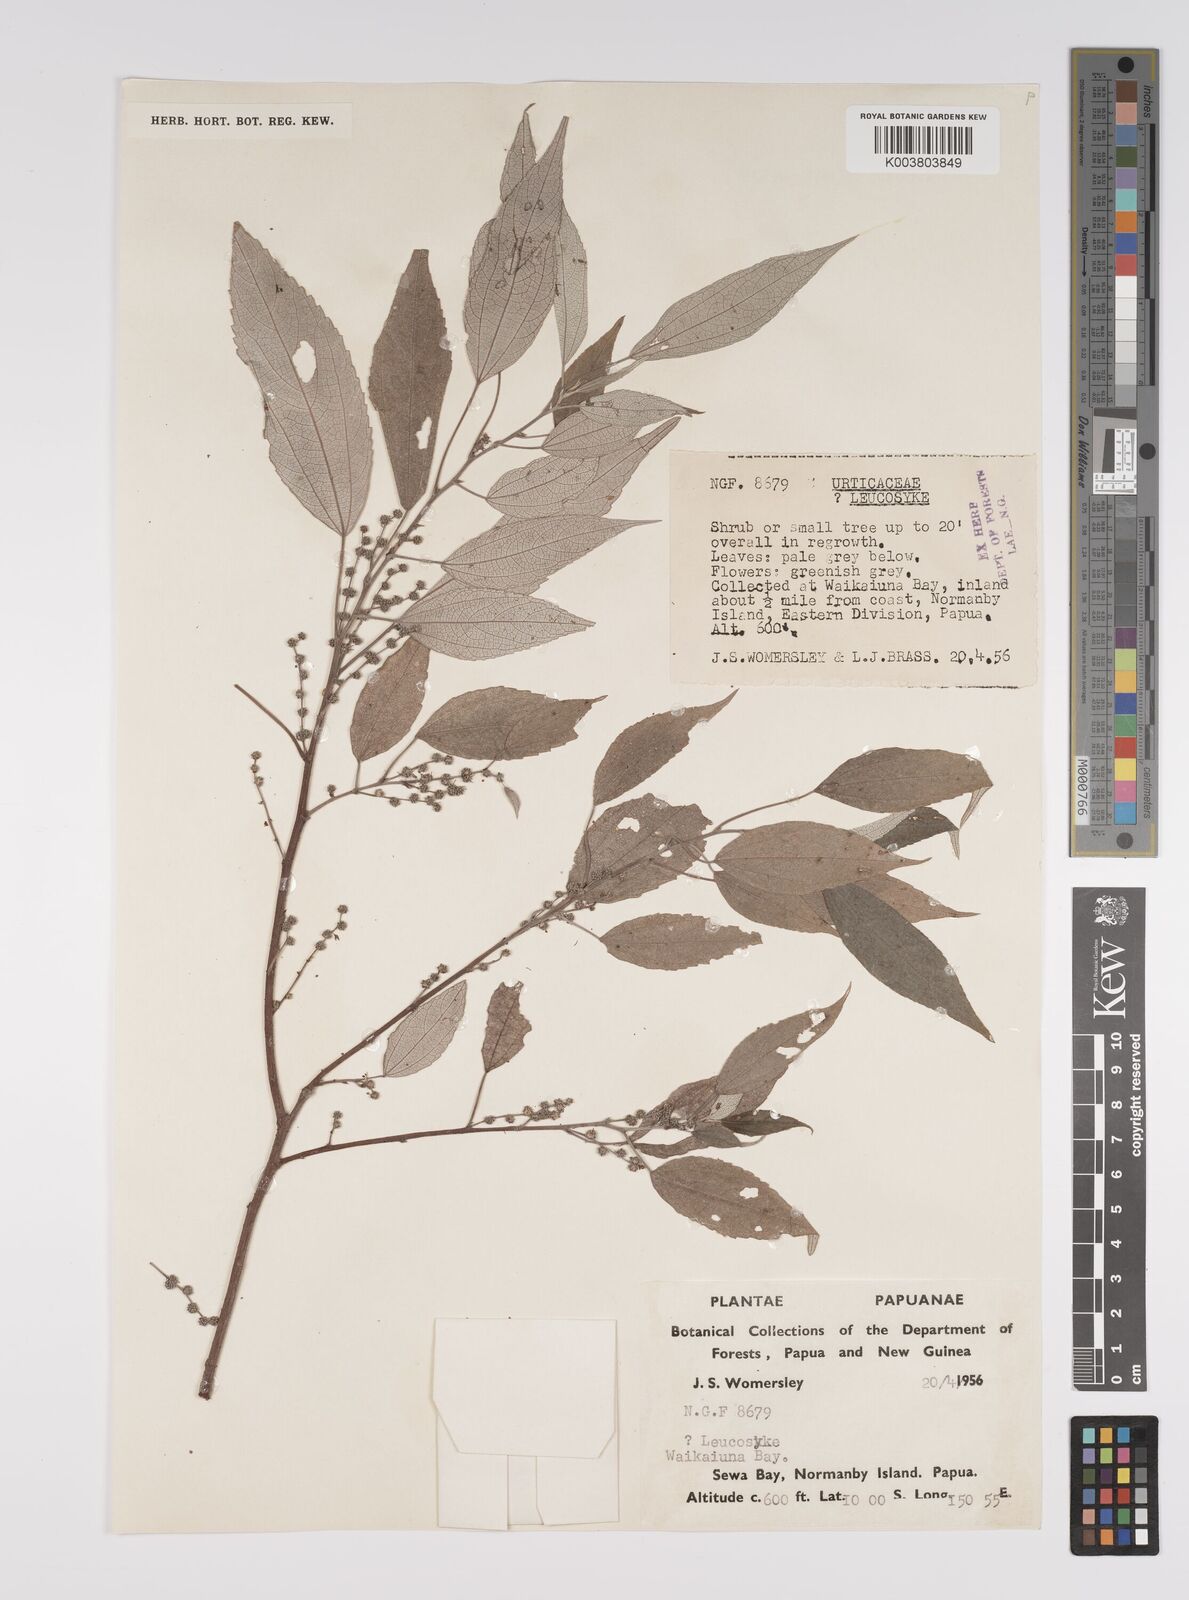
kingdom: Plantae
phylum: Tracheophyta
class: Magnoliopsida
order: Rosales
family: Urticaceae
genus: Pipturus
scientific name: Pipturus argenteus
